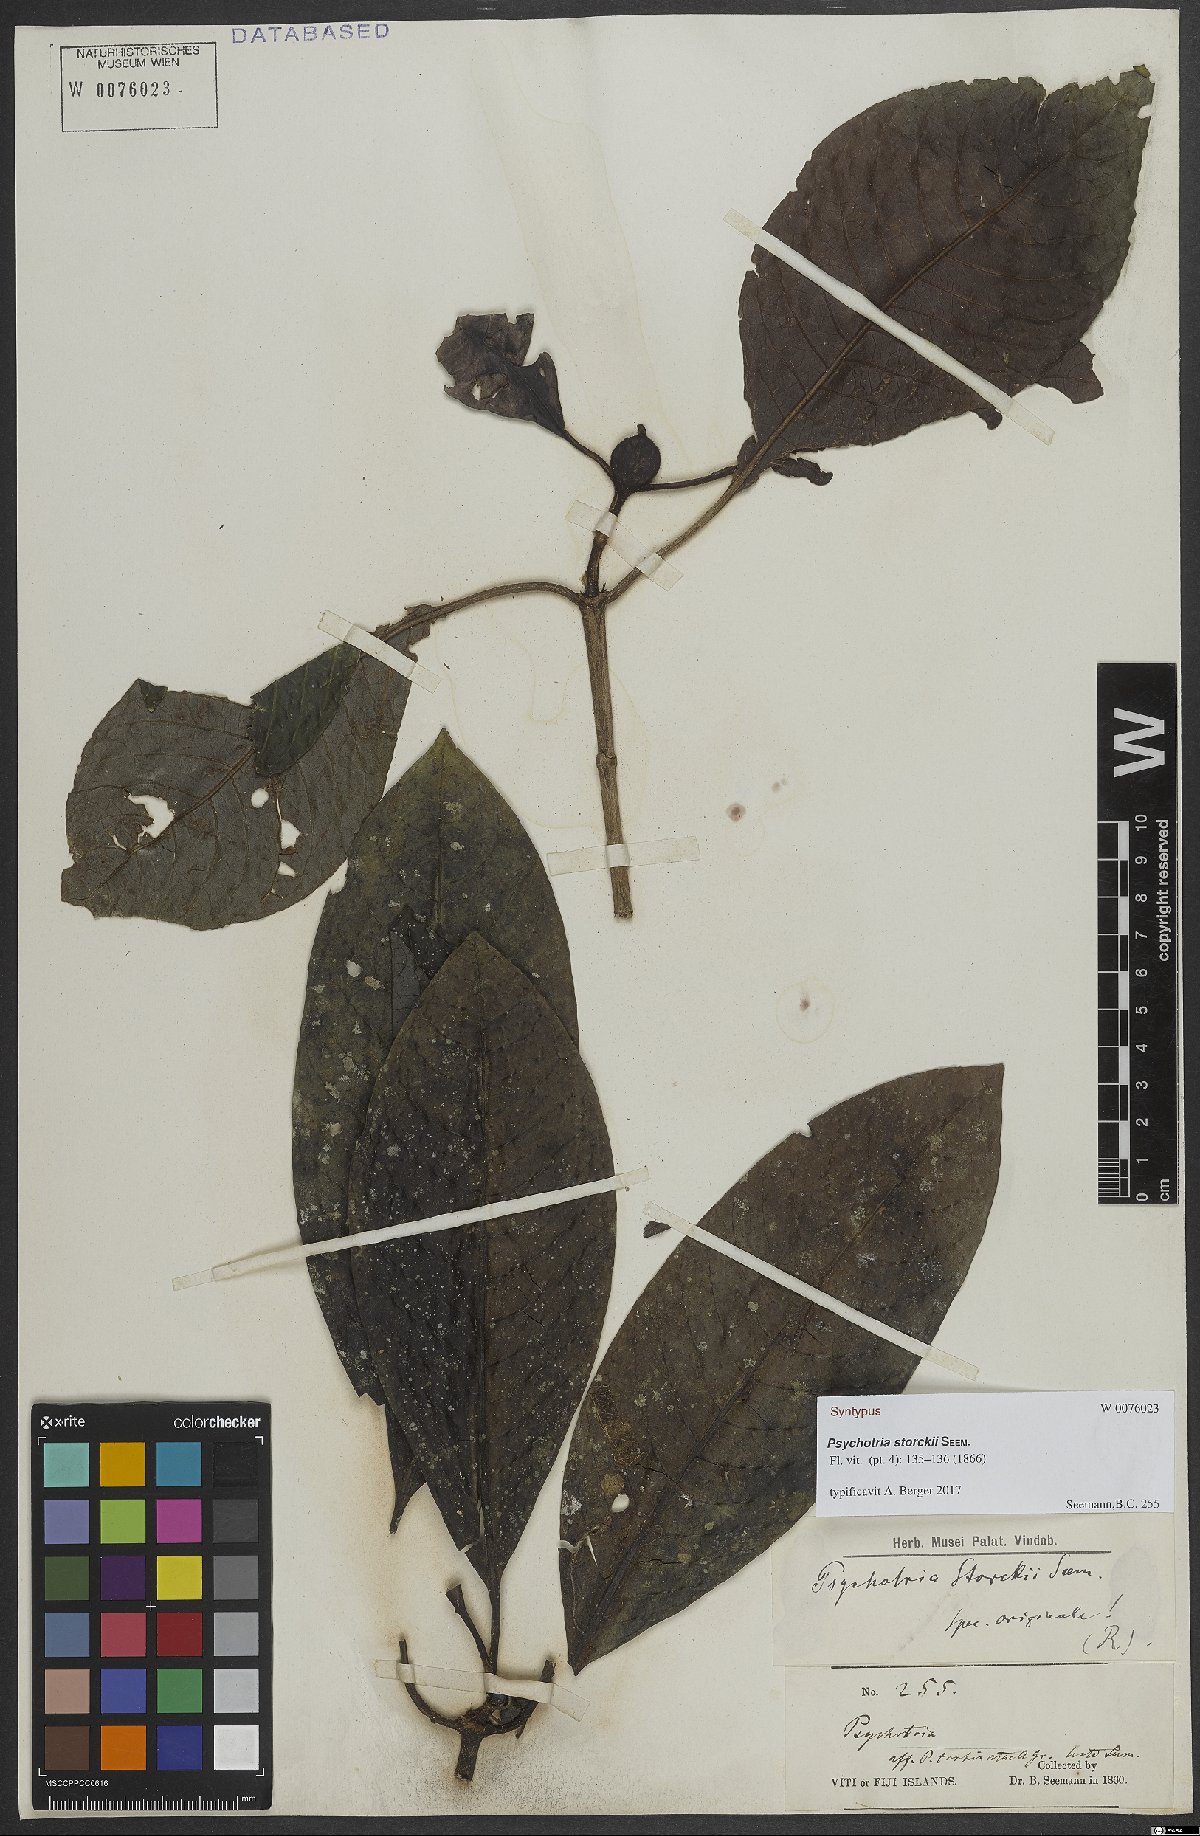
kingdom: Plantae
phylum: Tracheophyta
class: Magnoliopsida
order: Gentianales
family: Rubiaceae
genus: Psychotria
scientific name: Psychotria storckii
